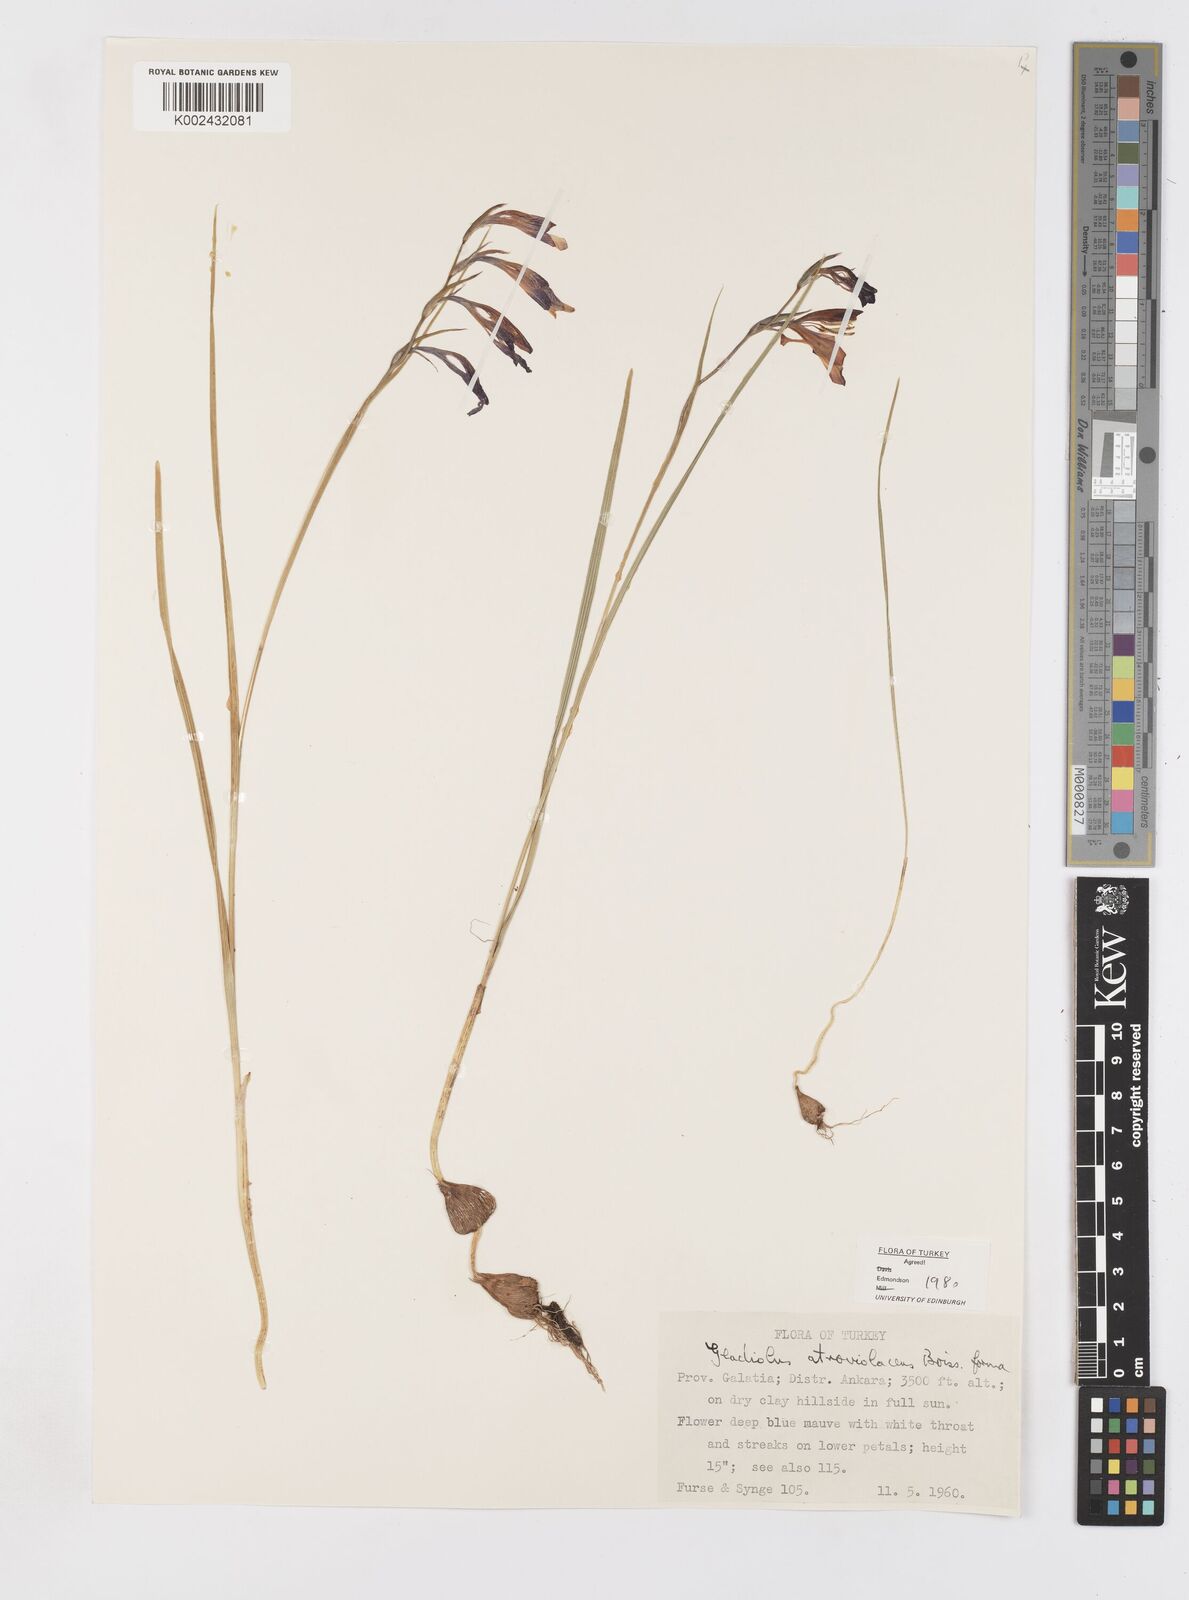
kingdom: Plantae
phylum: Tracheophyta
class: Liliopsida
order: Asparagales
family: Iridaceae
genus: Gladiolus
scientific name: Gladiolus atroviolaceus
